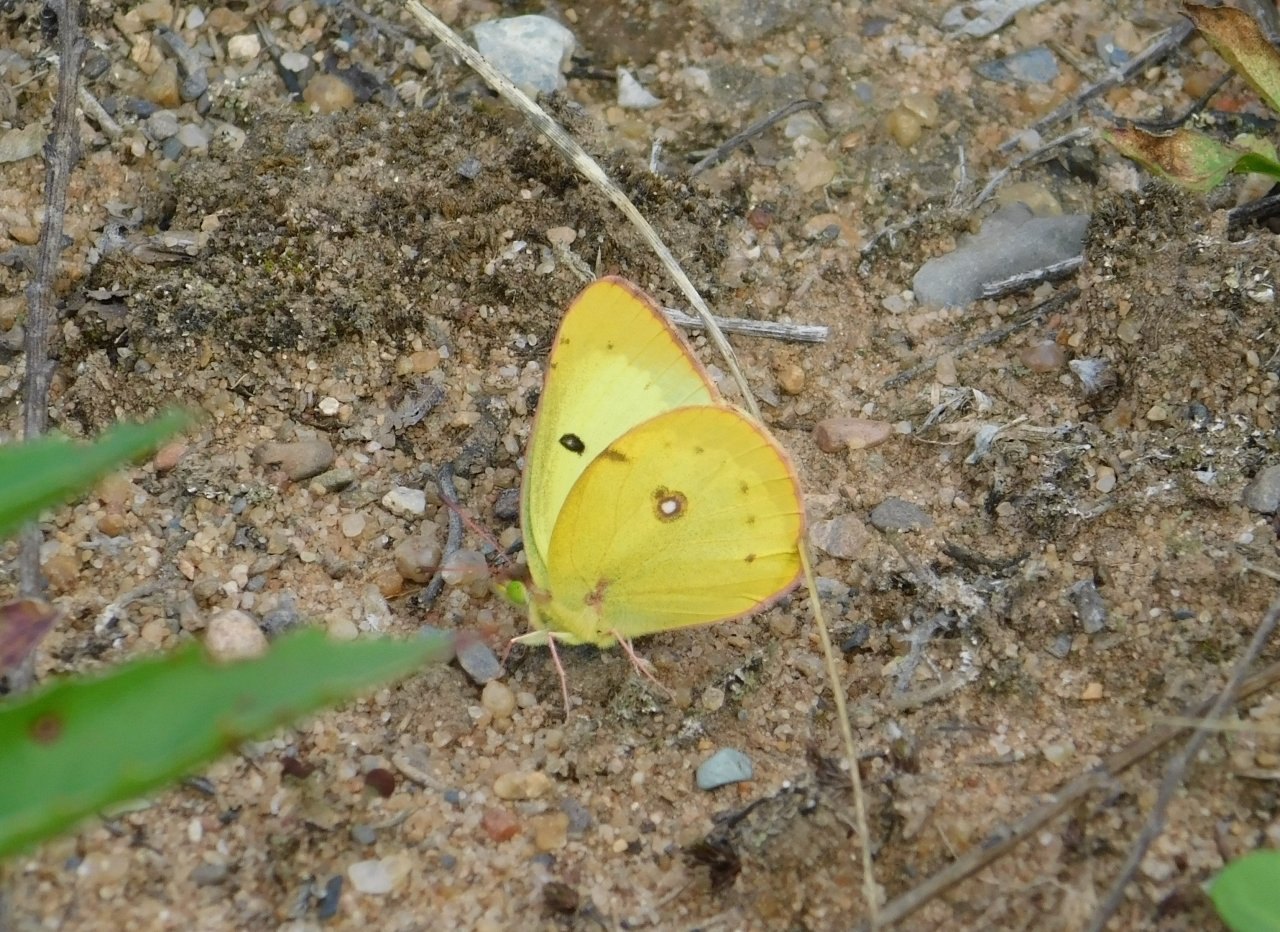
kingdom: Animalia
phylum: Arthropoda
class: Insecta
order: Lepidoptera
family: Pieridae
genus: Colias
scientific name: Colias philodice
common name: Clouded Sulphur
